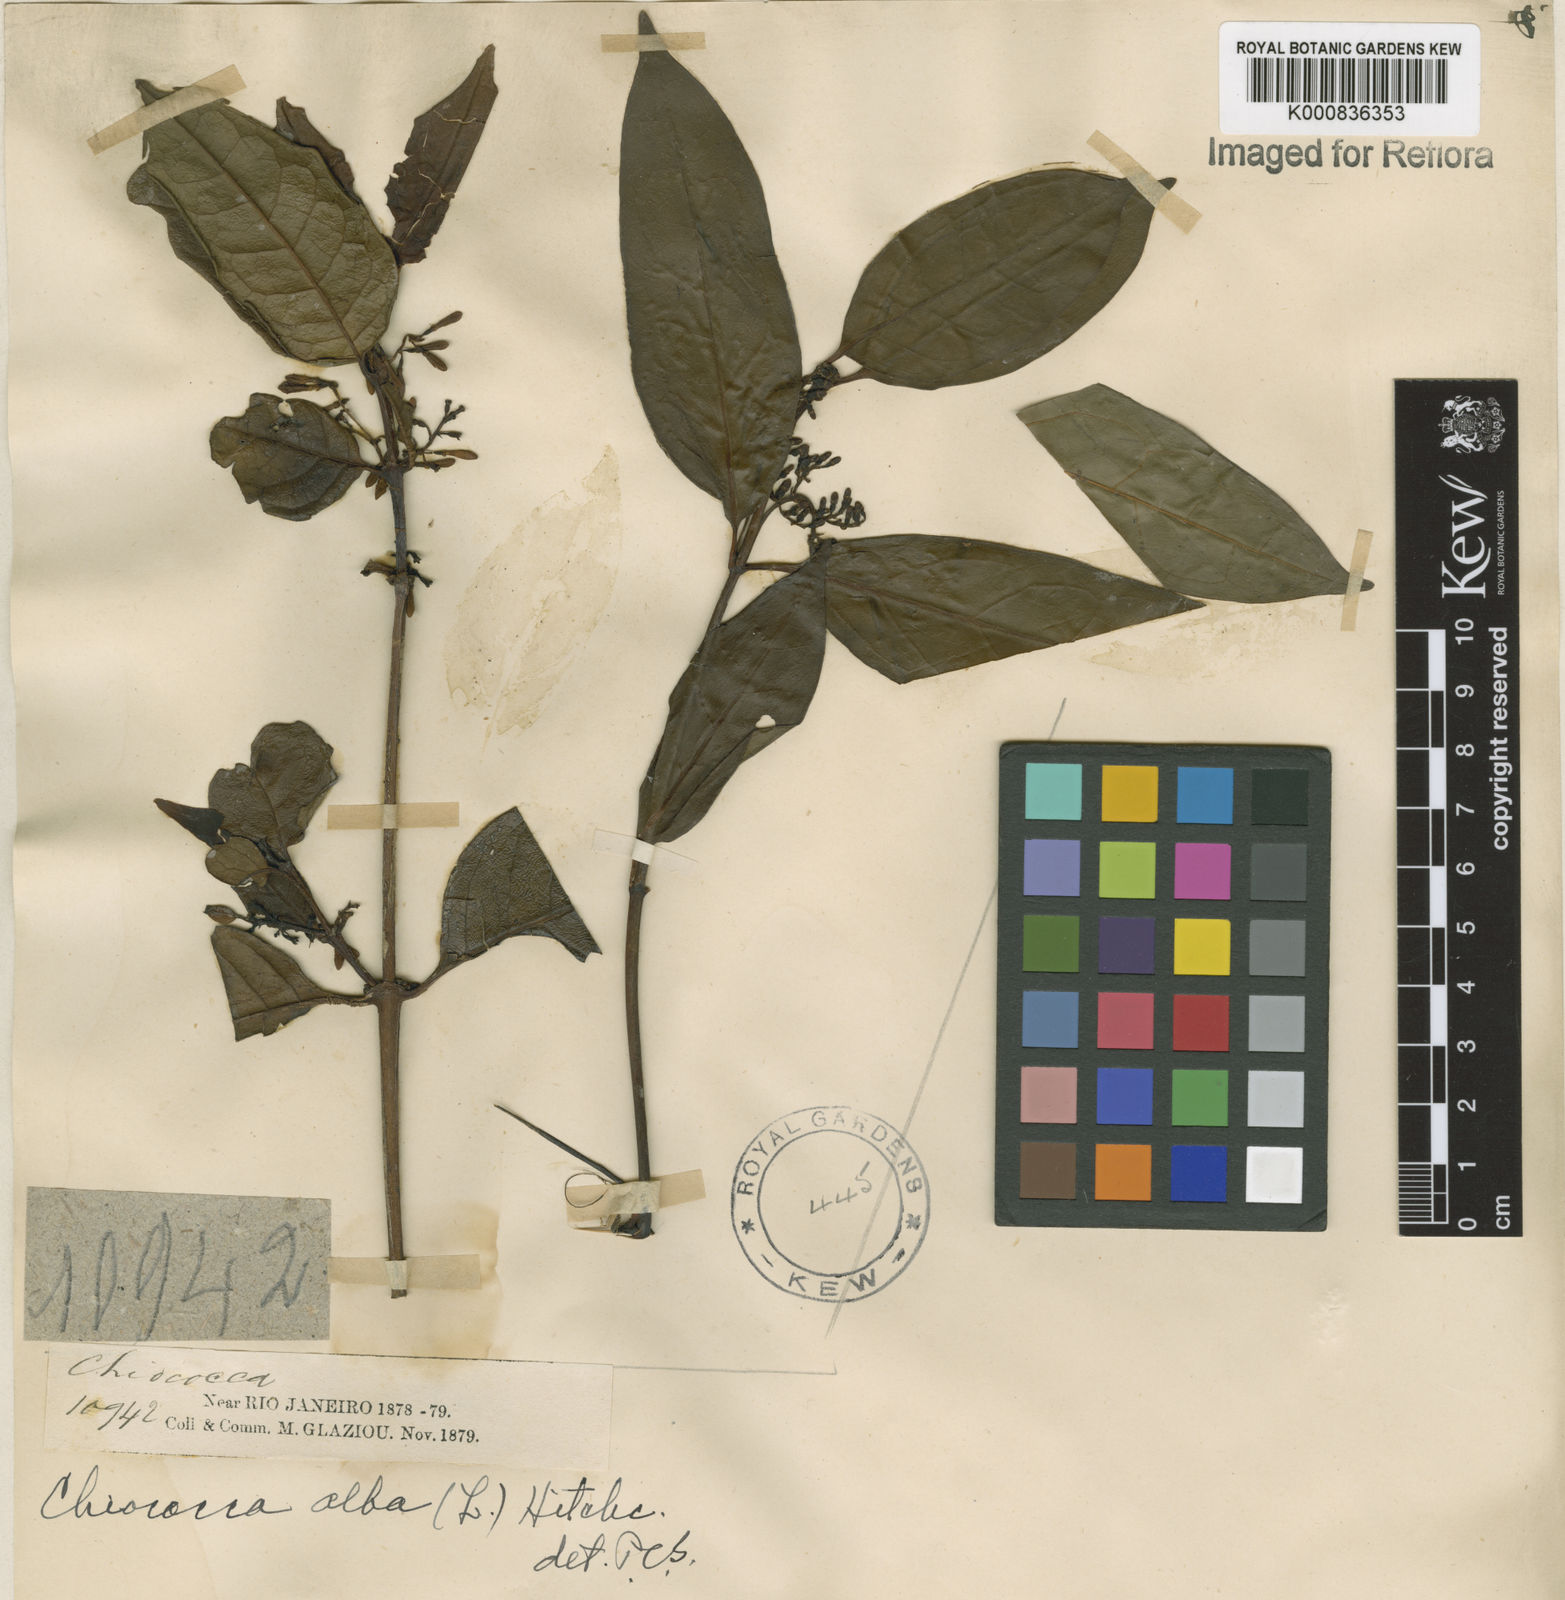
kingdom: Plantae
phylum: Tracheophyta
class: Magnoliopsida
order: Gentianales
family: Rubiaceae
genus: Chiococca
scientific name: Chiococca alba
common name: Snowberry
